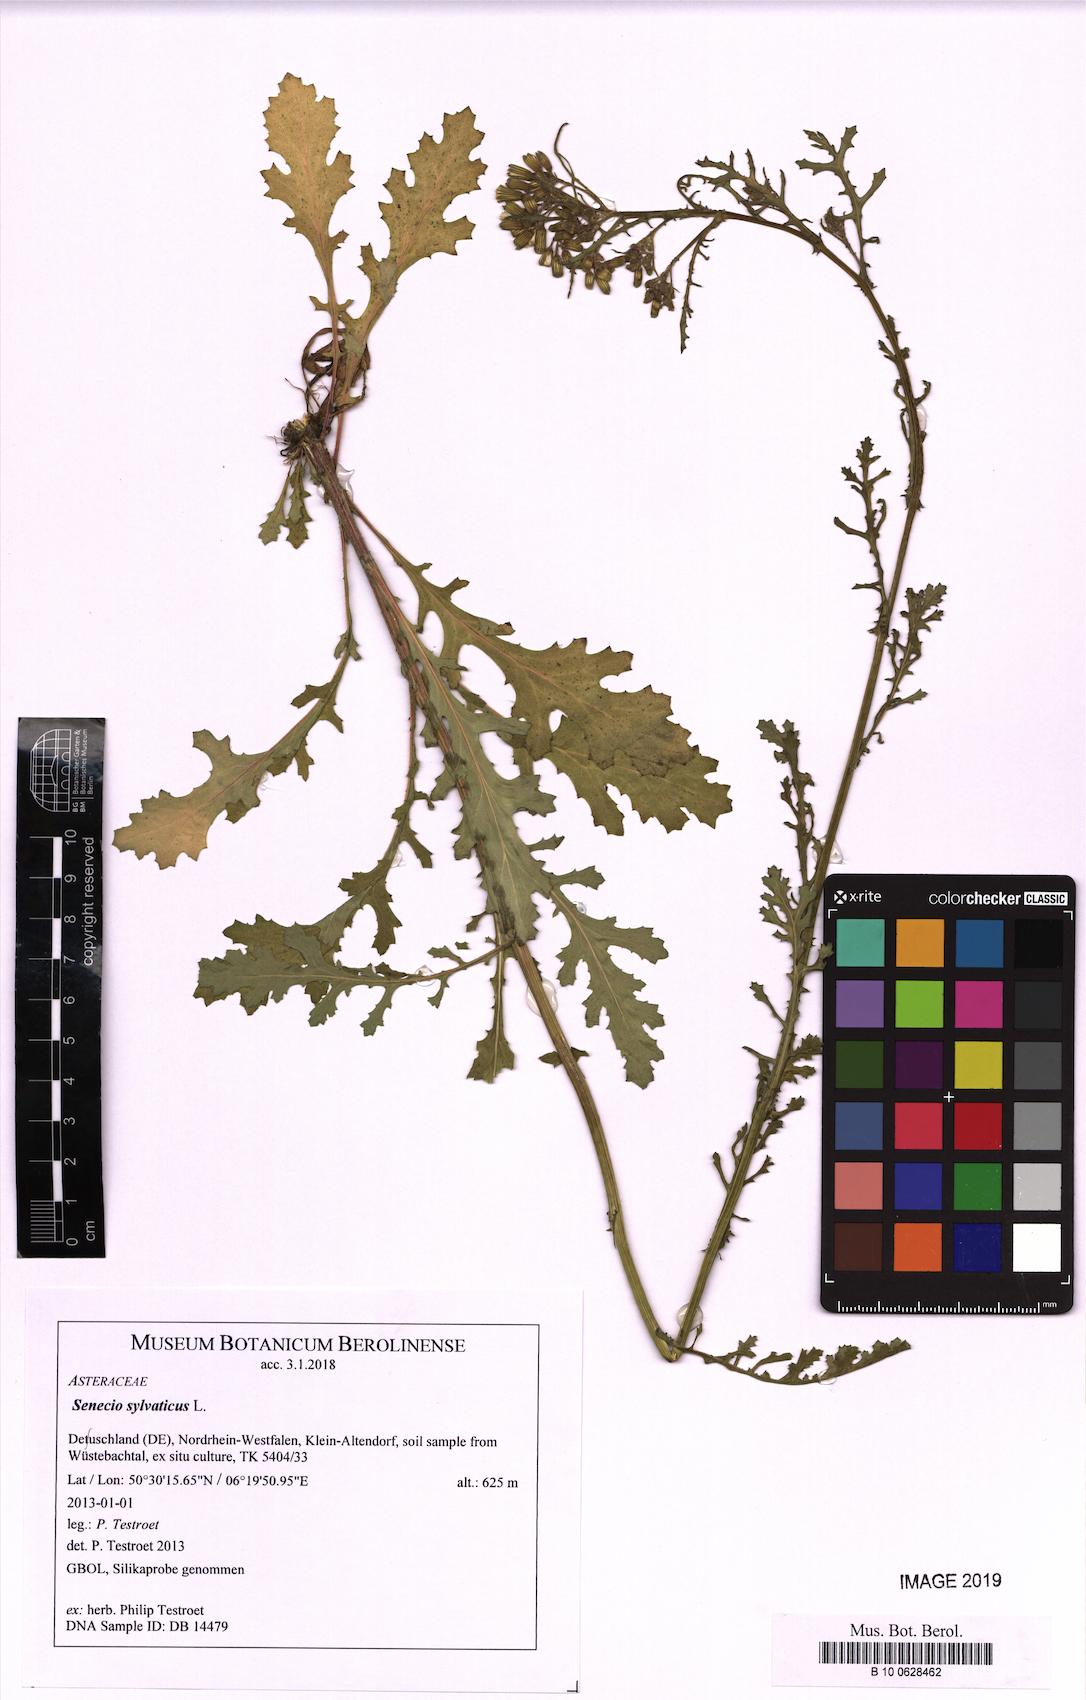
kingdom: Plantae
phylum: Tracheophyta
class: Magnoliopsida
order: Asterales
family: Asteraceae
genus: Senecio
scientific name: Senecio sylvaticus
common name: Woodland ragwort
